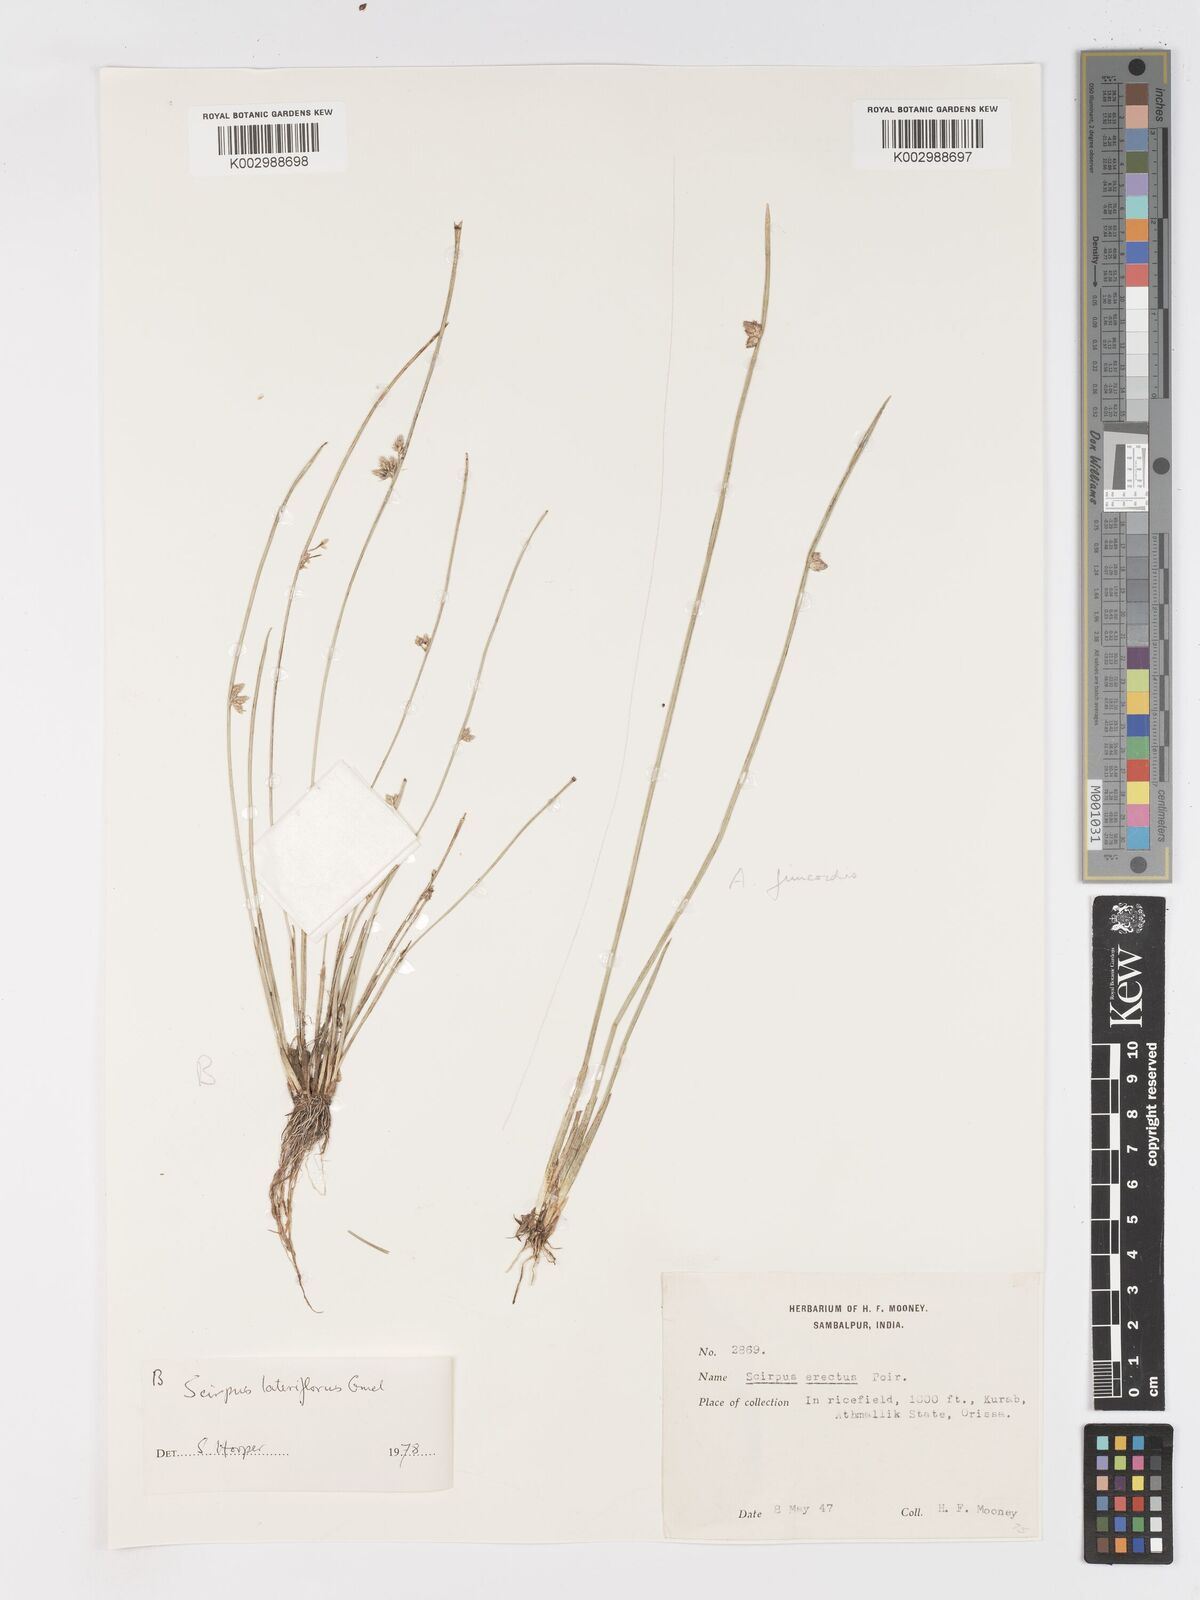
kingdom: Plantae
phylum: Tracheophyta
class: Liliopsida
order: Poales
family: Cyperaceae
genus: Schoenoplectiella
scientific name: Schoenoplectiella lateriflora
